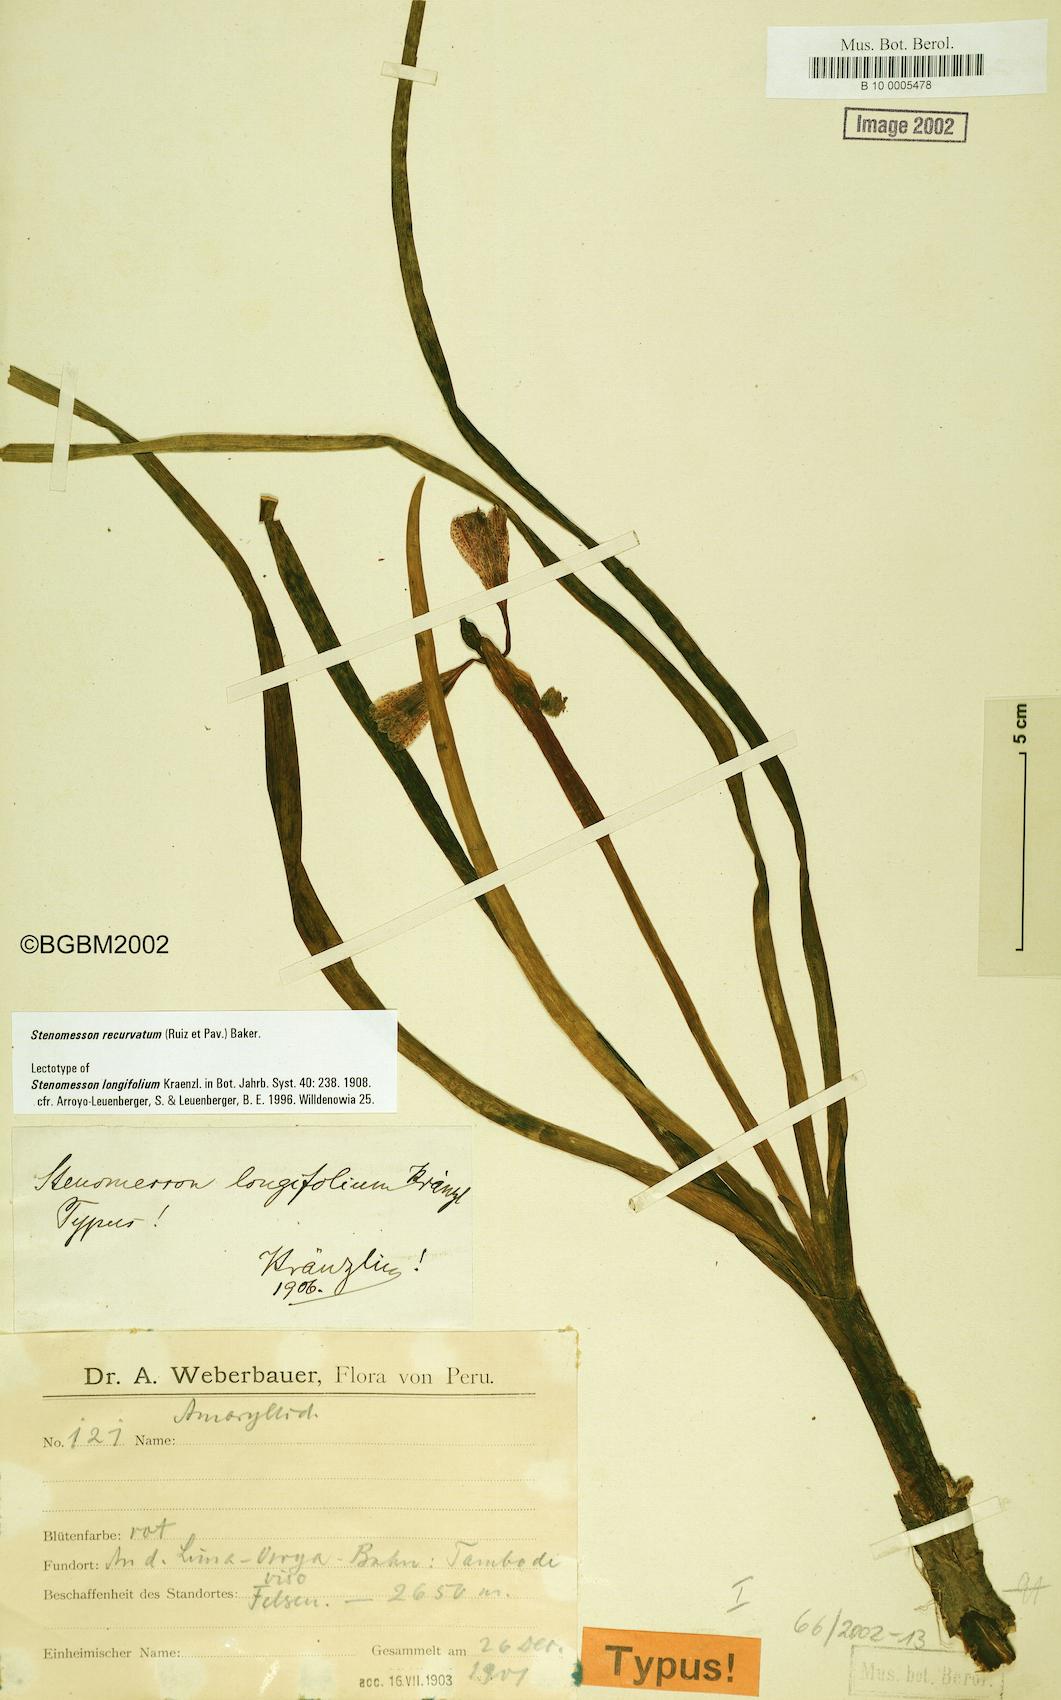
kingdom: Plantae
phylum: Tracheophyta
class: Liliopsida
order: Asparagales
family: Amaryllidaceae
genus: Clinanthus
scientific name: Clinanthus recurvatus
